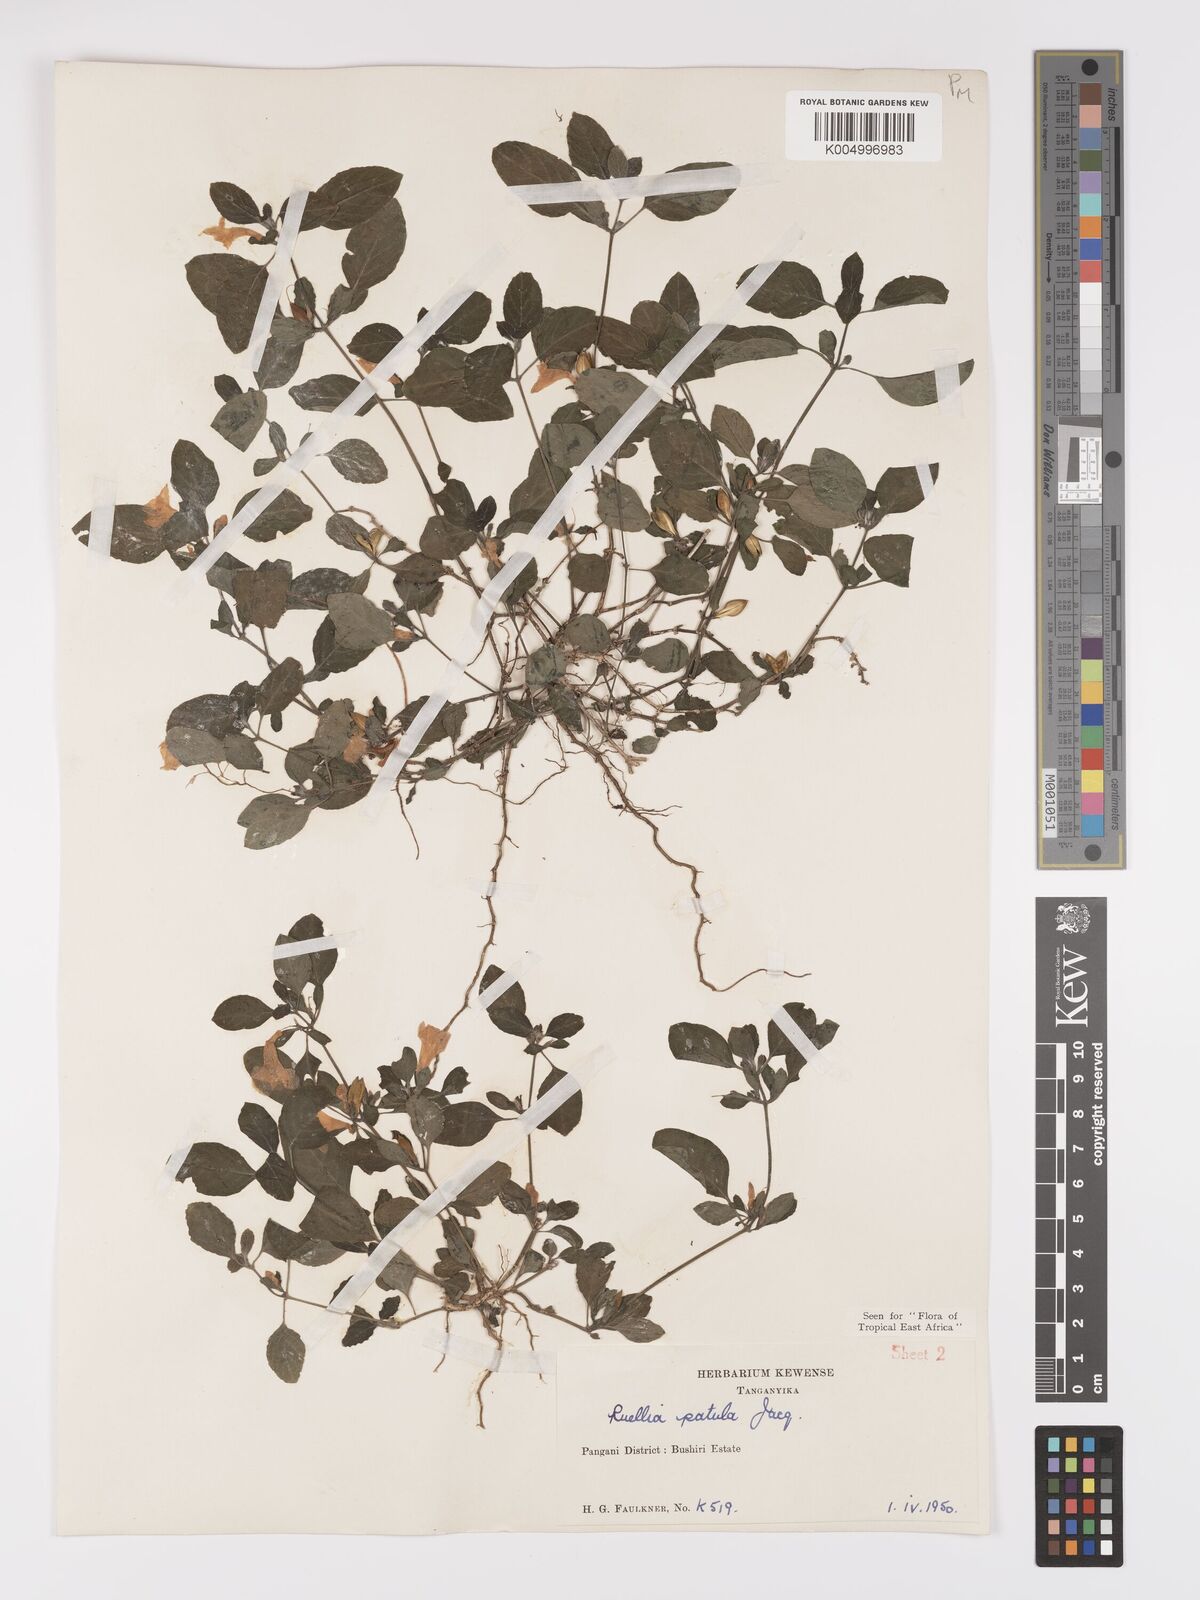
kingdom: Plantae
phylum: Tracheophyta
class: Magnoliopsida
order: Lamiales
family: Acanthaceae
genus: Ruellia
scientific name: Ruellia patula
